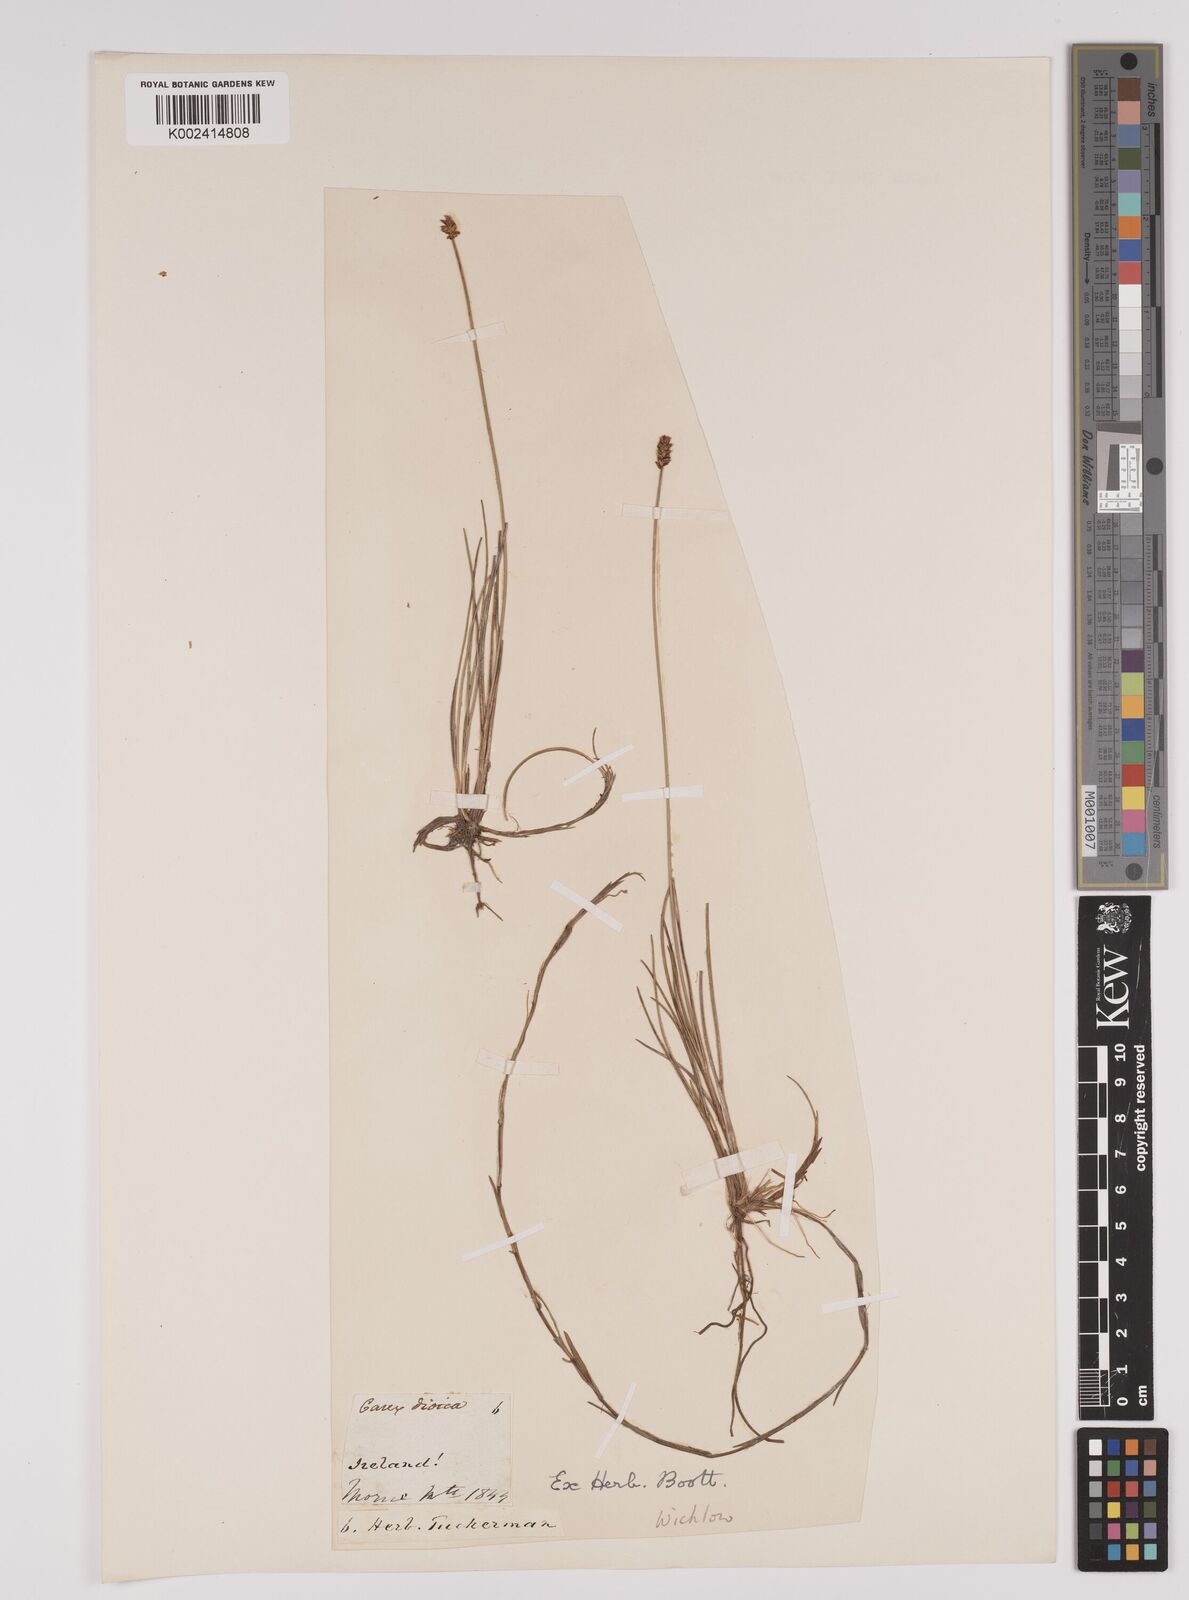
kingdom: Plantae
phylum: Tracheophyta
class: Liliopsida
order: Poales
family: Cyperaceae
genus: Carex
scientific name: Carex dioica
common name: Dioecious sedge
